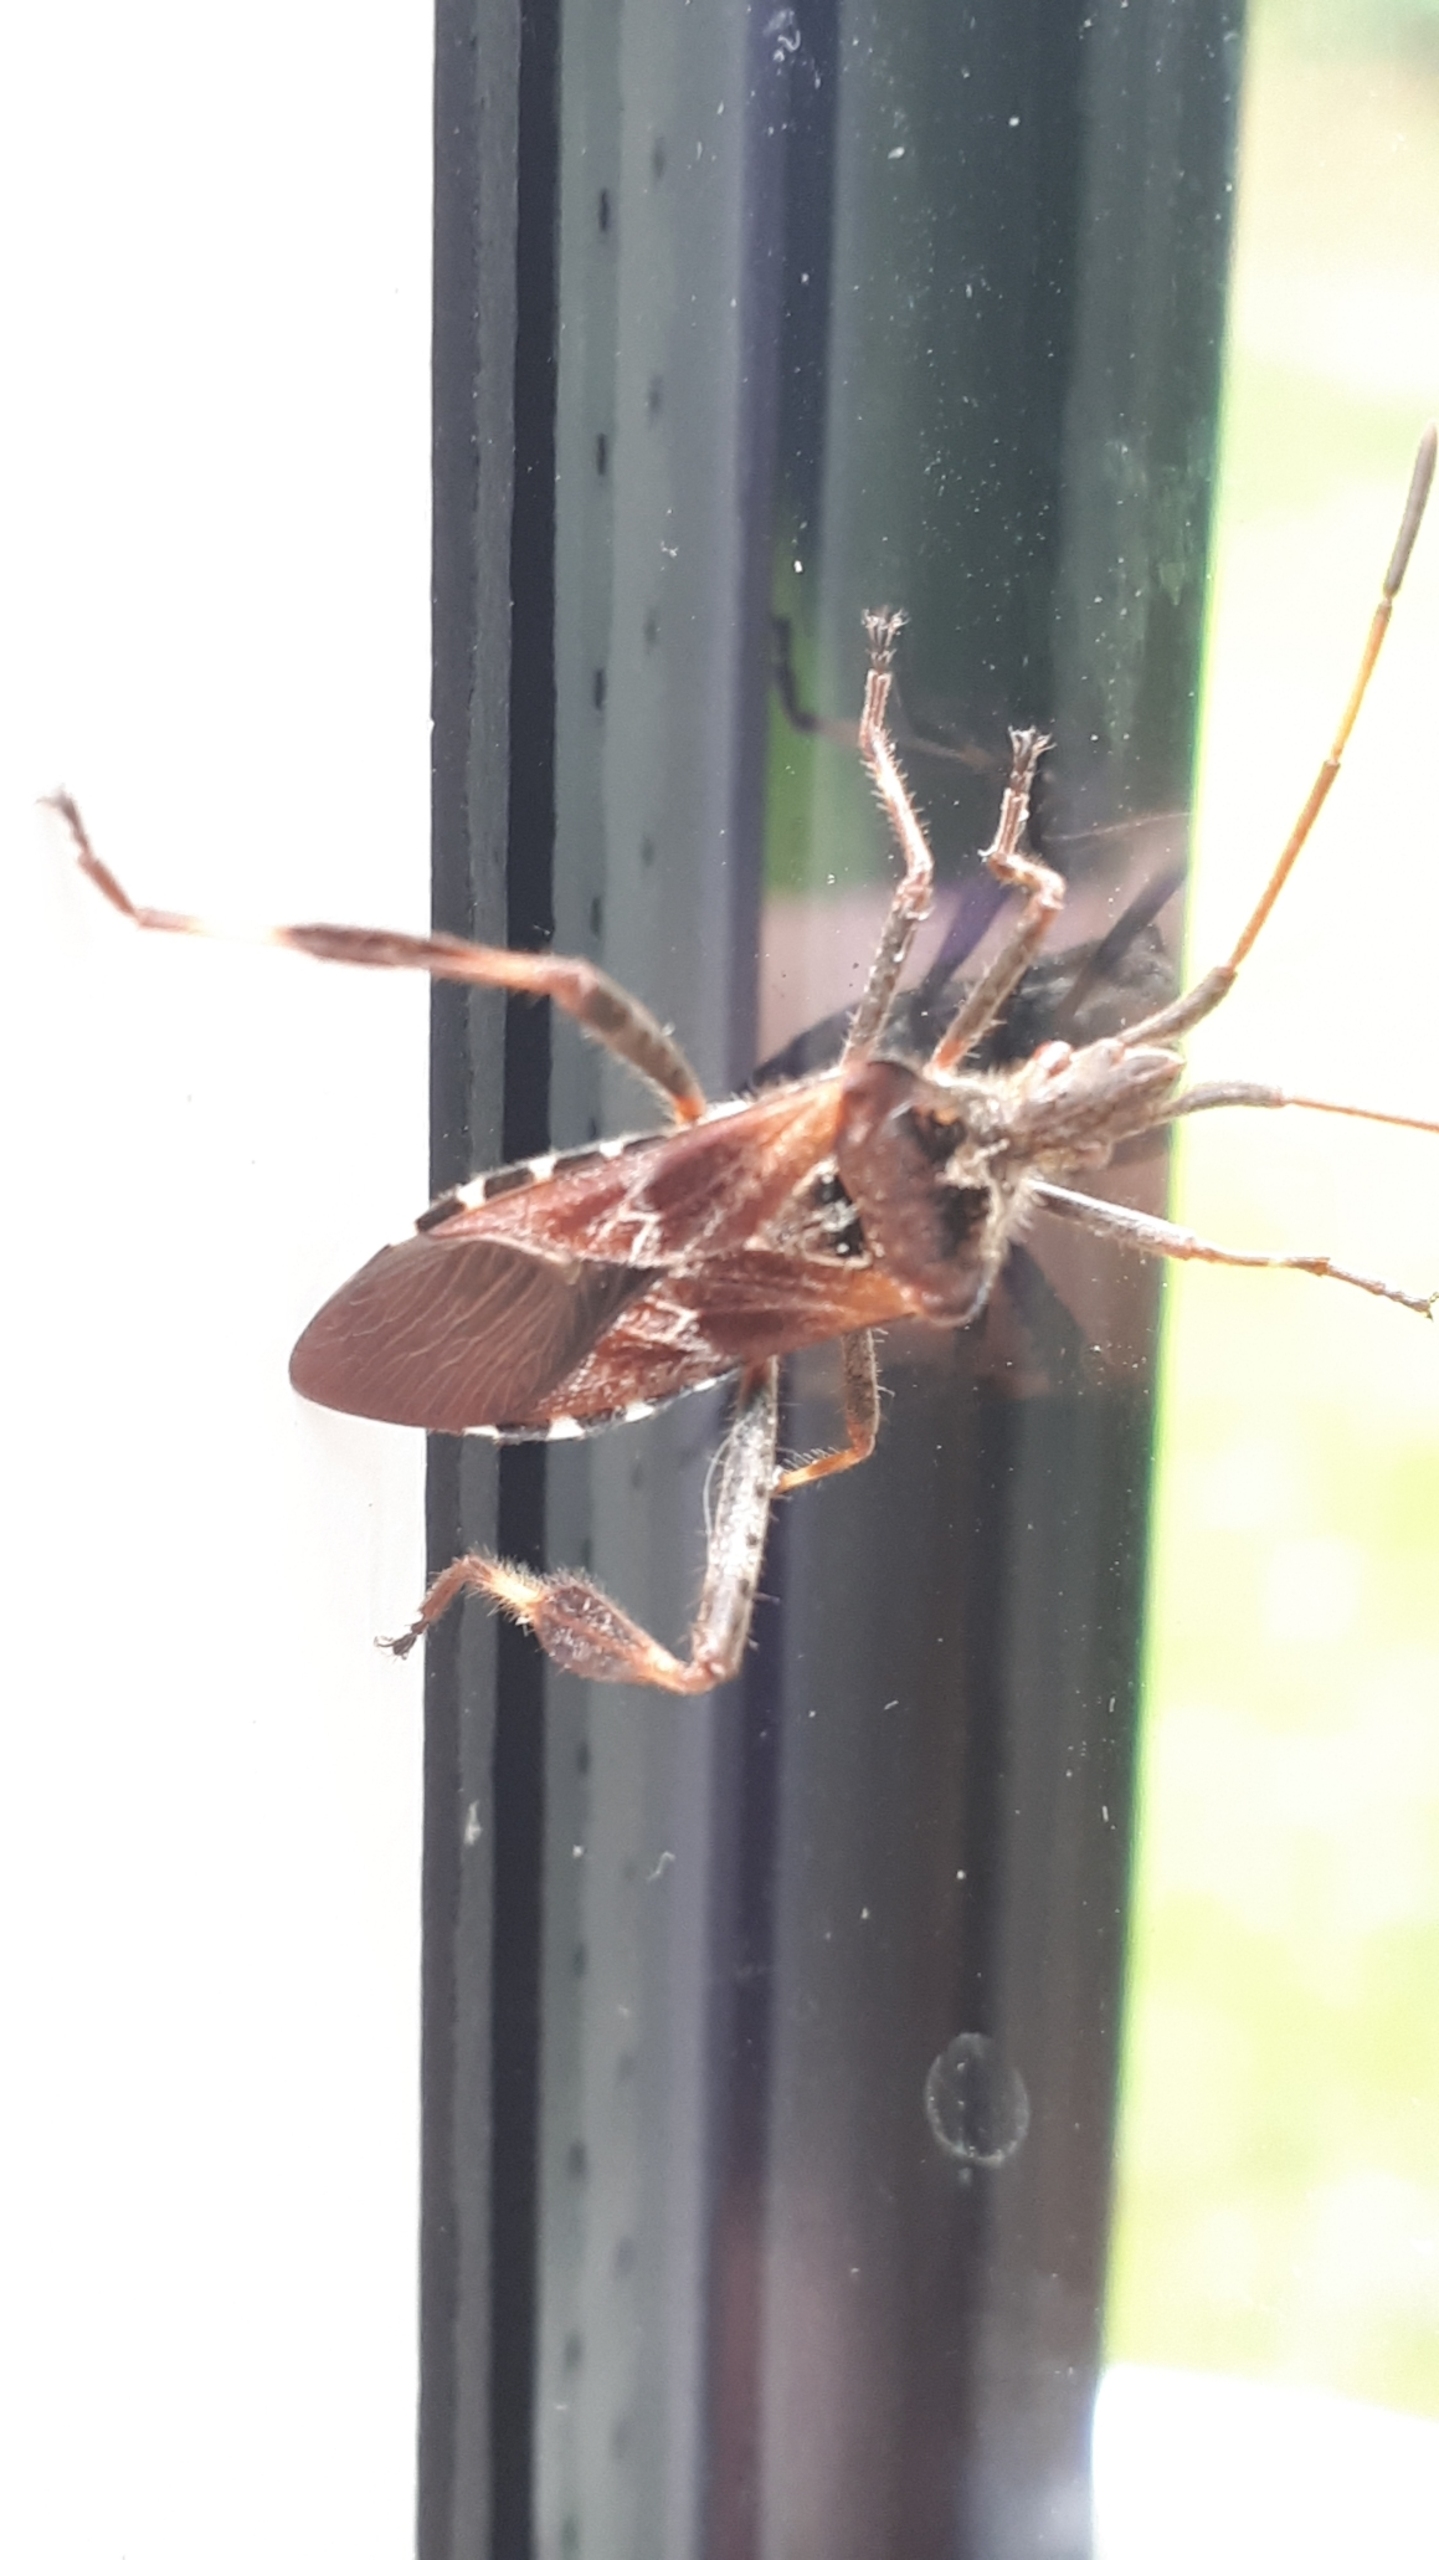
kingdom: Animalia
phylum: Arthropoda
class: Insecta
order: Hemiptera
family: Coreidae
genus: Leptoglossus
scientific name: Leptoglossus occidentalis
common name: Amerikansk fyrretæge
